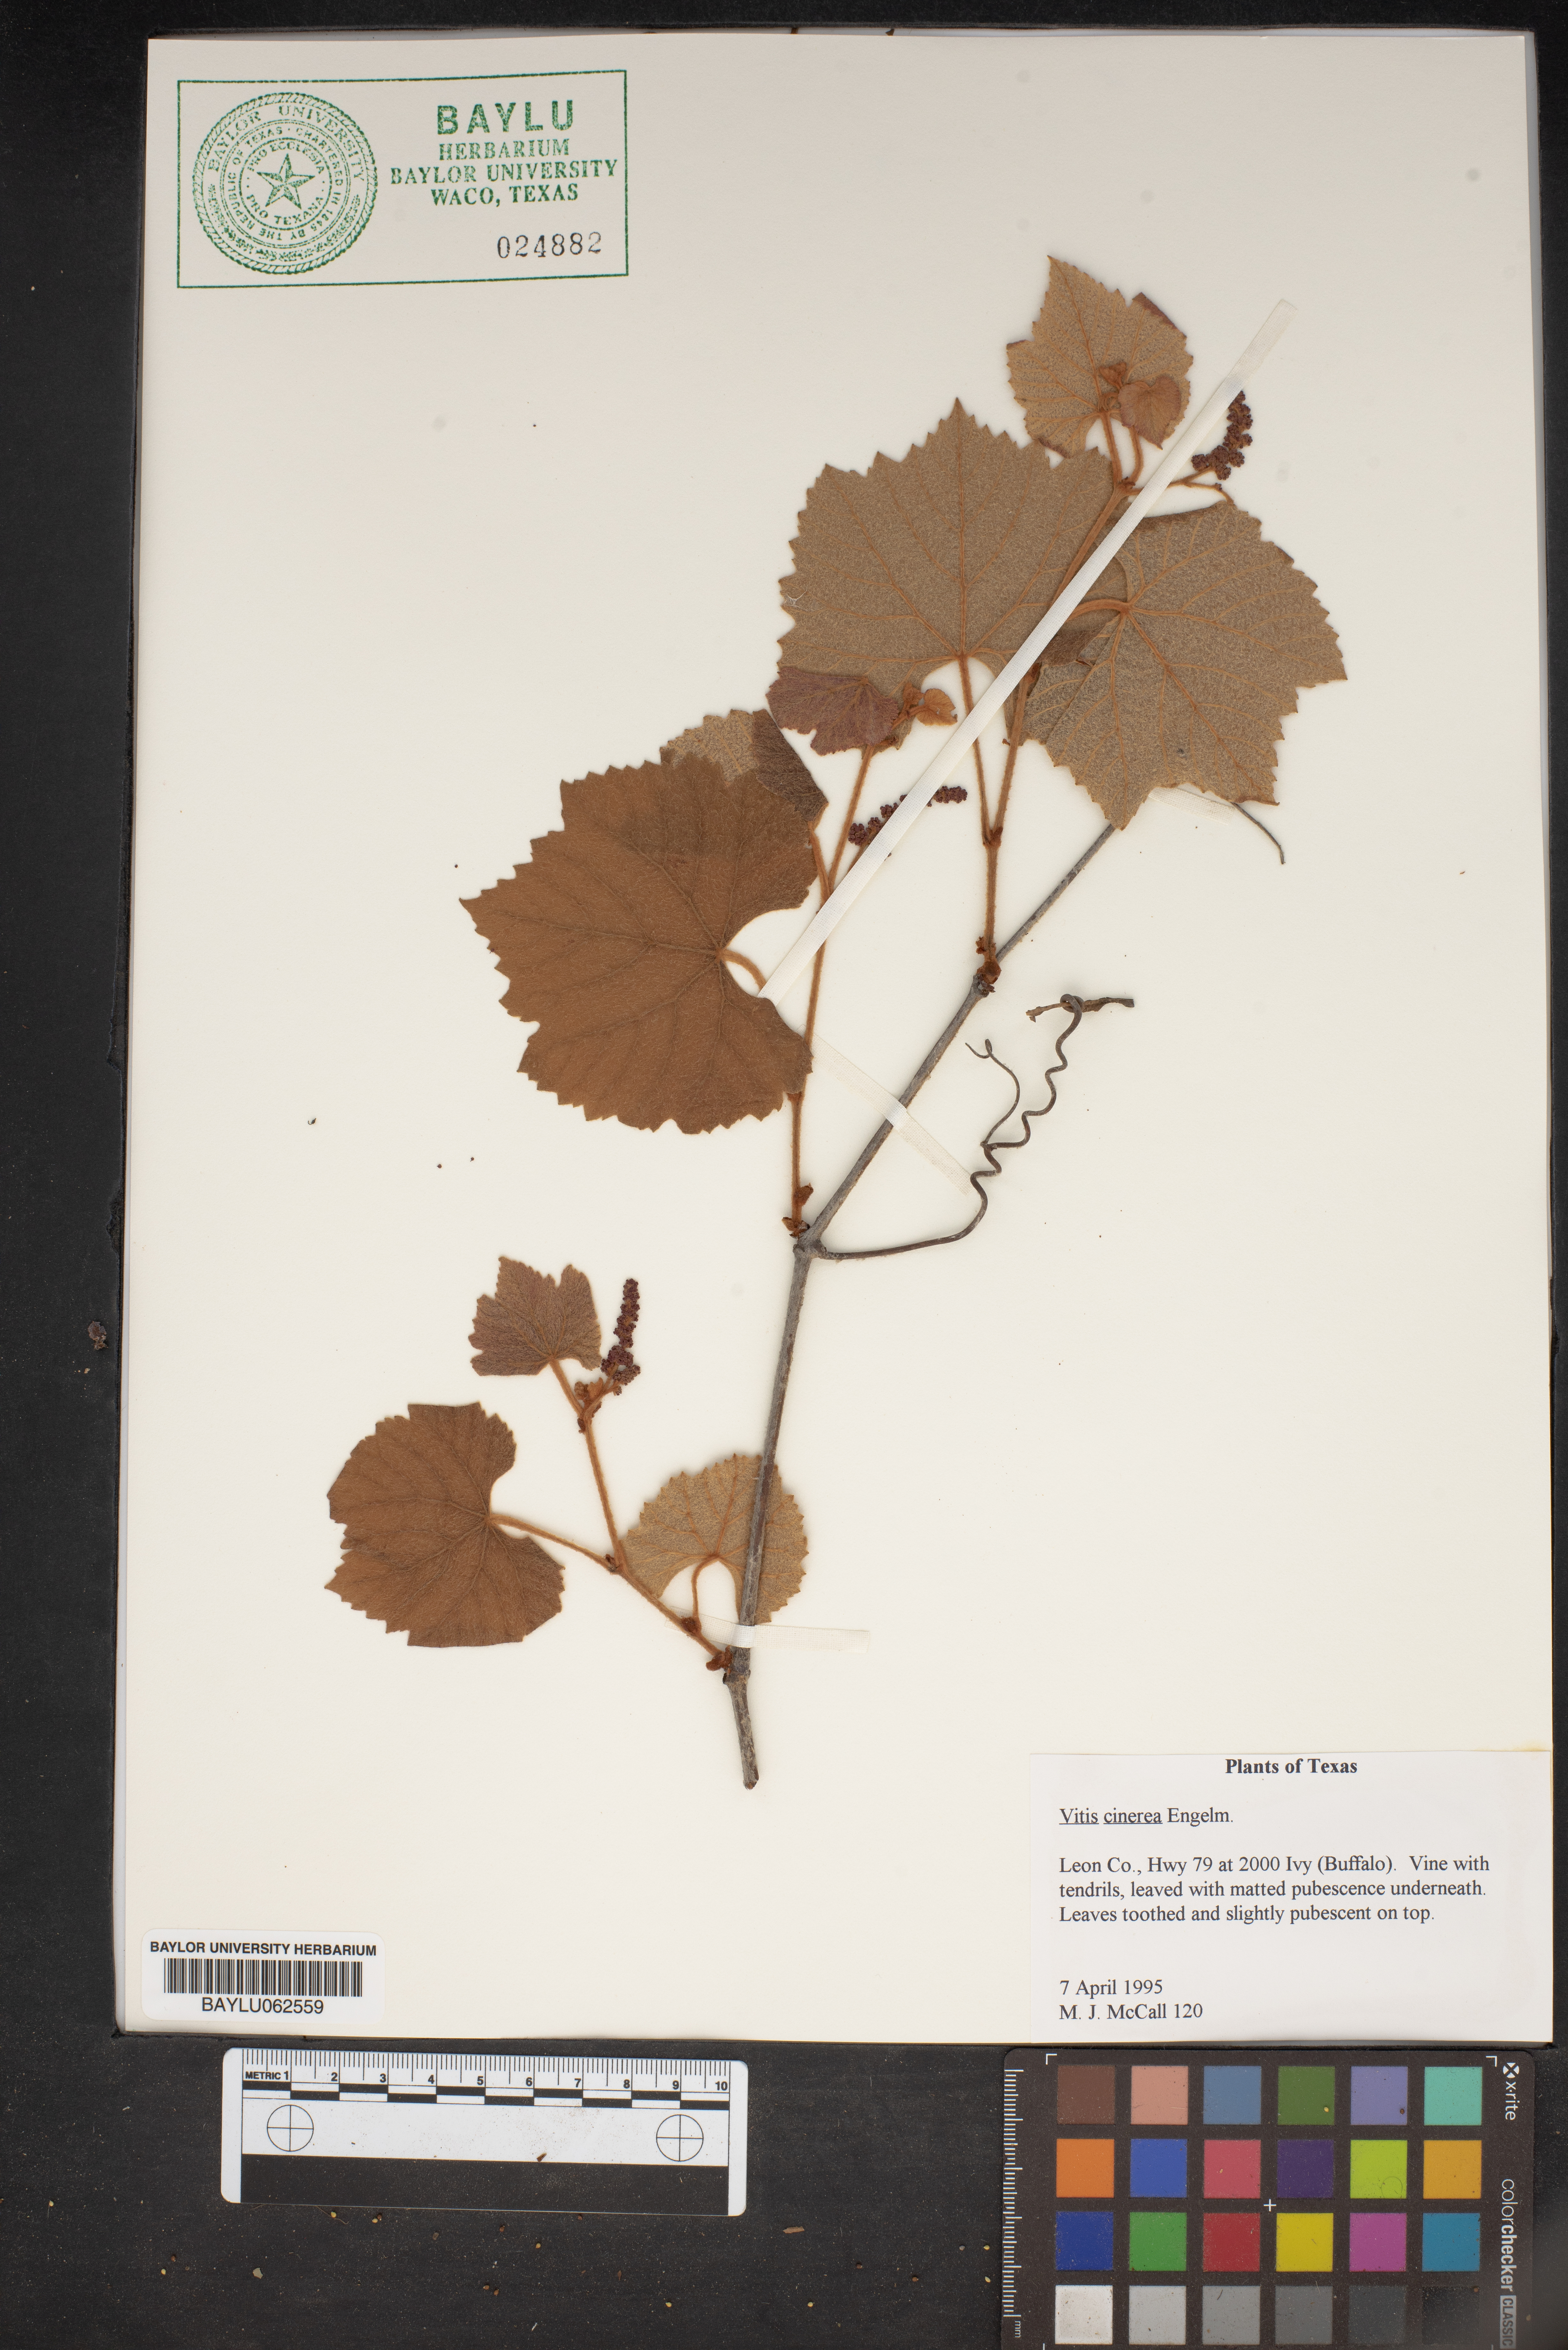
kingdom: Plantae
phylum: Tracheophyta
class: Magnoliopsida
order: Vitales
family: Vitaceae
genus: Vitis
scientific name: Vitis cinerea
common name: Ashy grape
